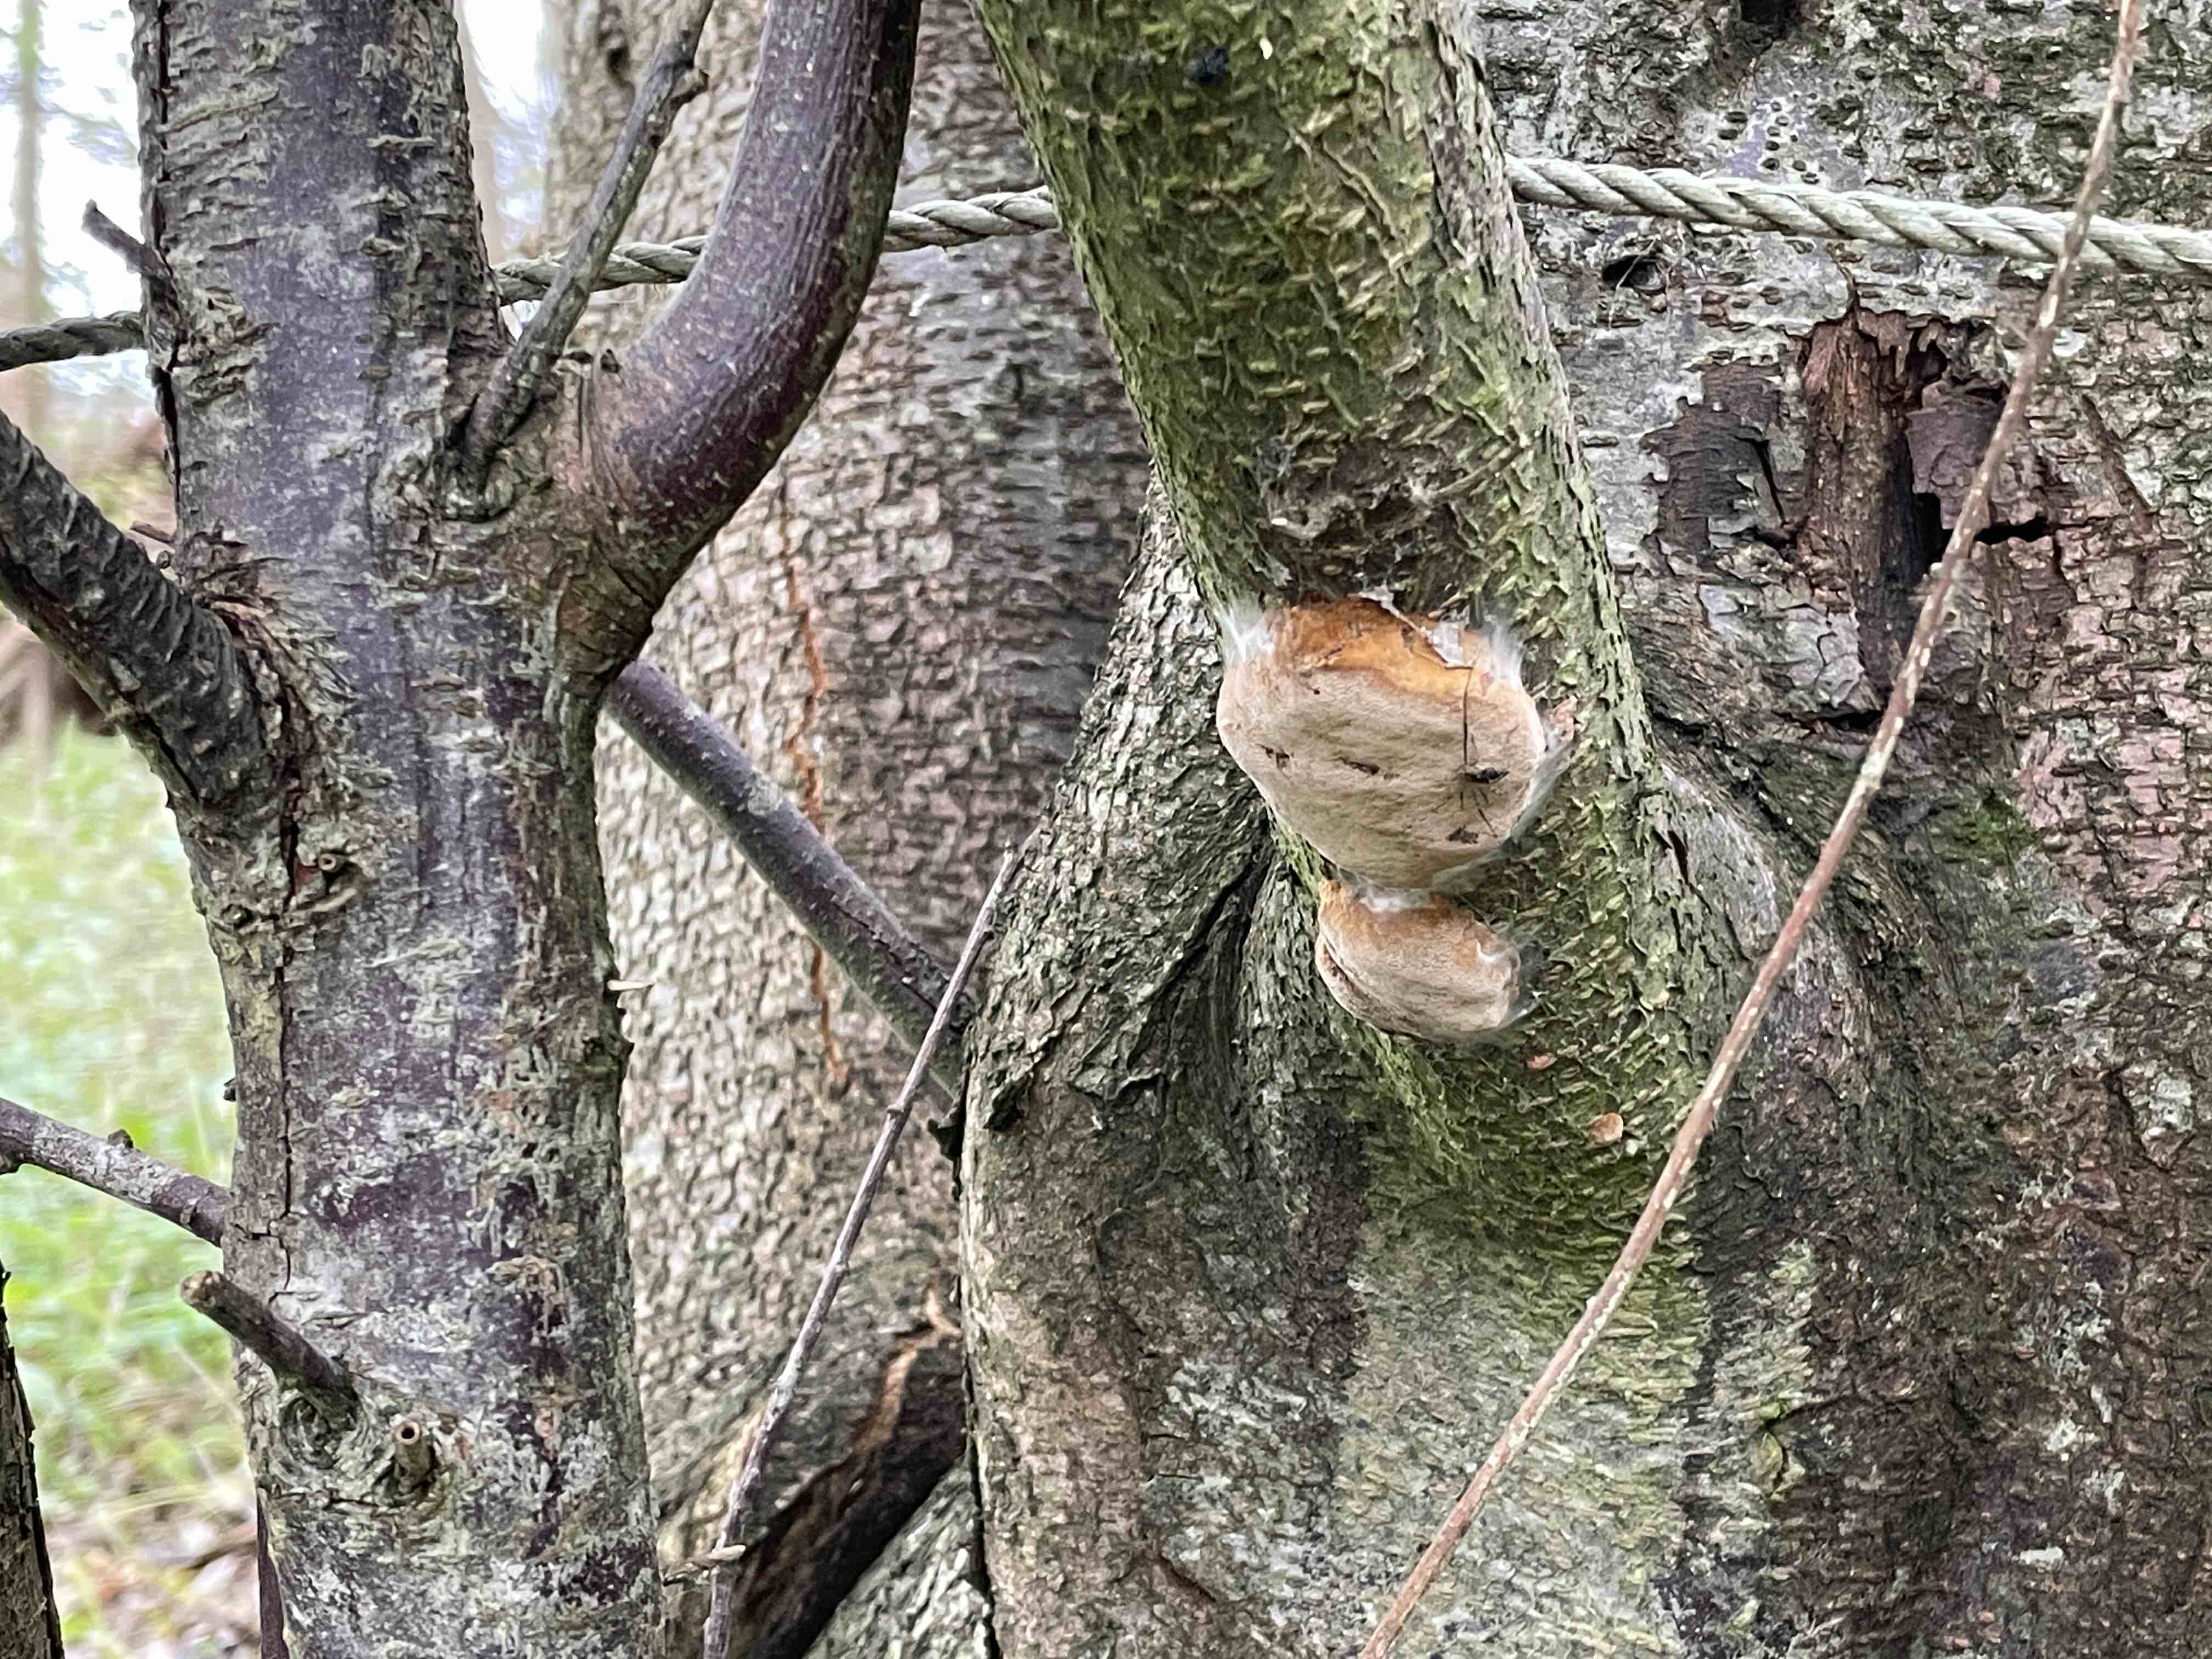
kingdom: Fungi
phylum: Basidiomycota
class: Agaricomycetes
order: Hymenochaetales
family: Hymenochaetaceae
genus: Phellinus
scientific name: Phellinus pomaceus
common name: blomme-ildporesvamp
